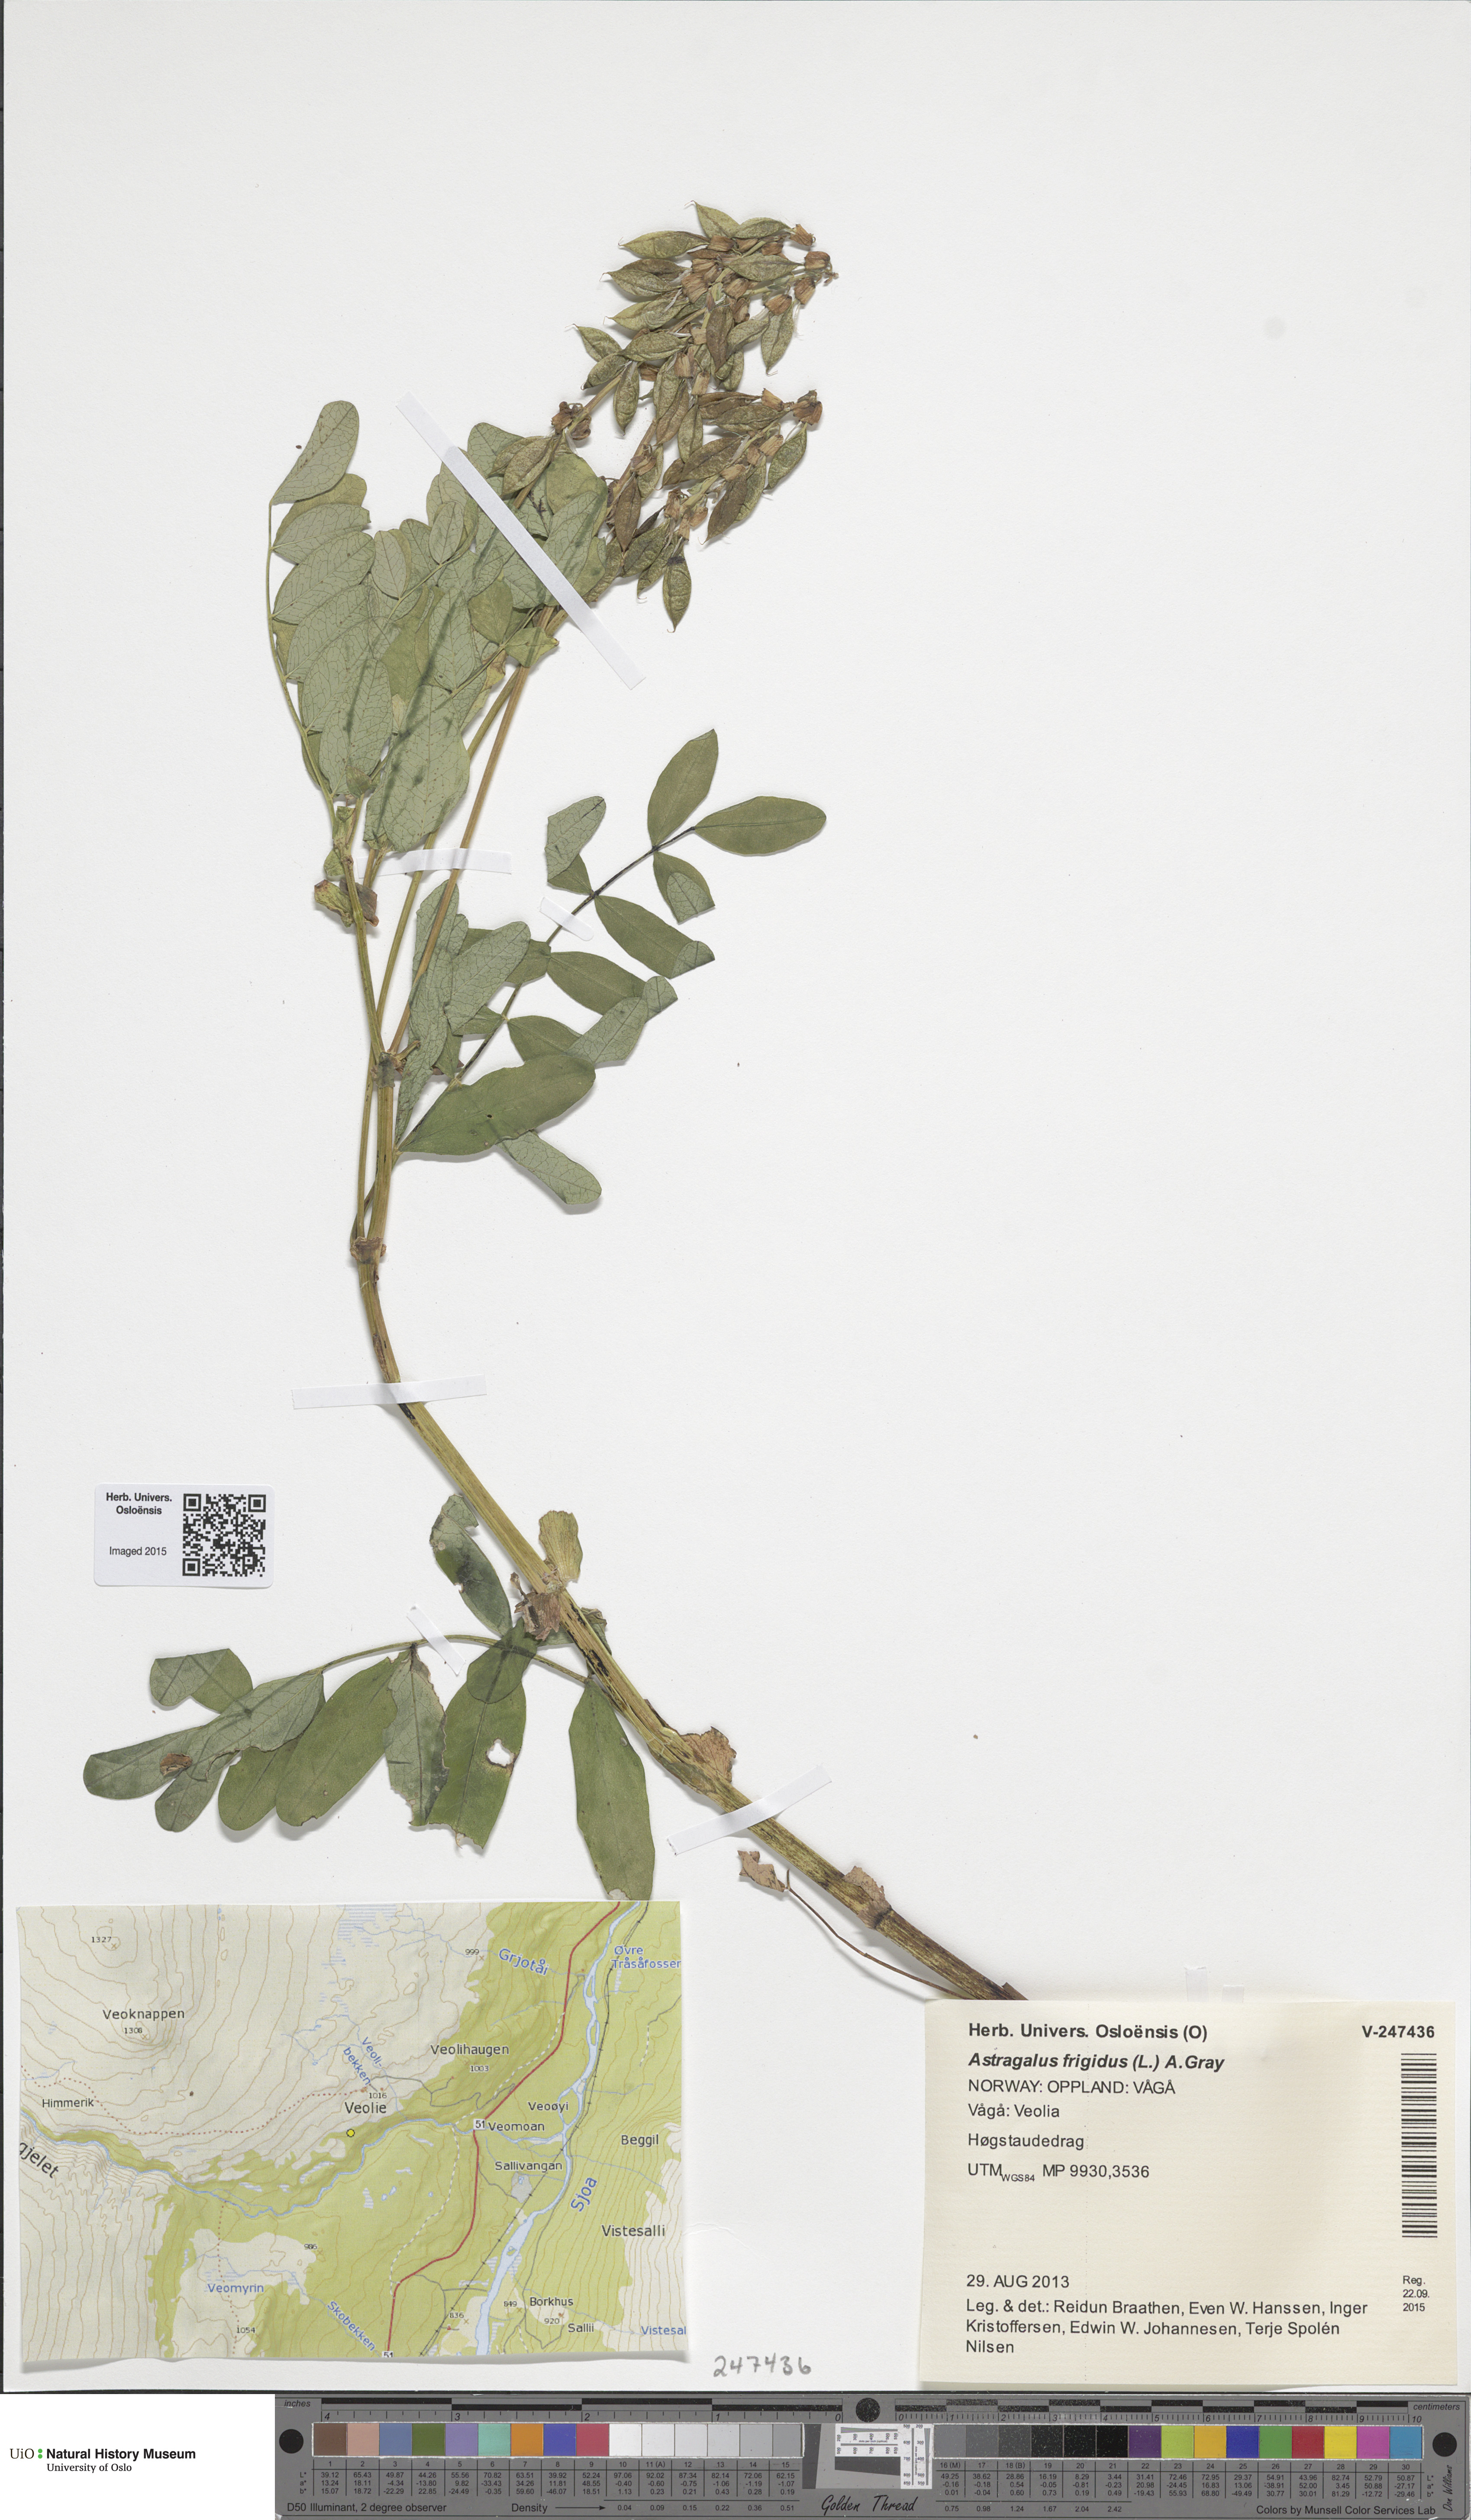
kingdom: Plantae
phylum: Tracheophyta
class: Magnoliopsida
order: Fabales
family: Fabaceae
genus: Astragalus
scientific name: Astragalus frigidus
